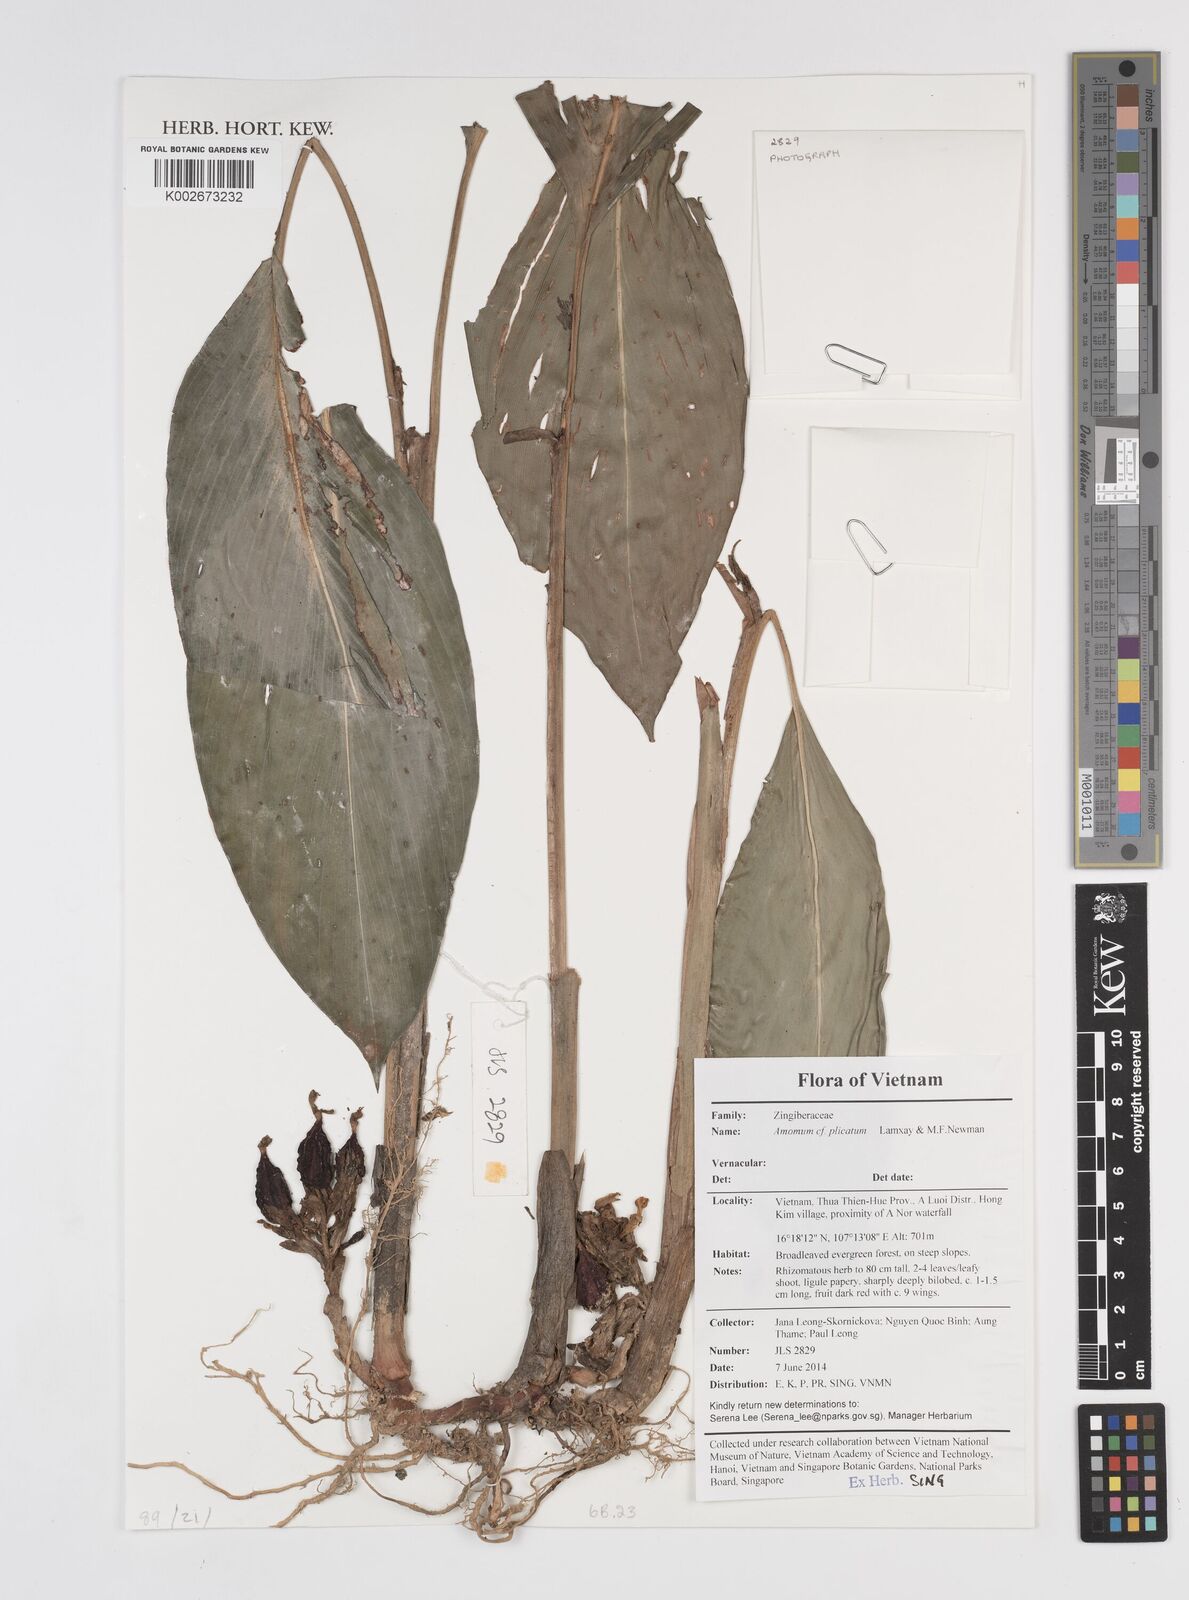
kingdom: Plantae
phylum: Tracheophyta
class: Liliopsida
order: Zingiberales
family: Zingiberaceae
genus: Amomum
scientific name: Amomum plicatum
